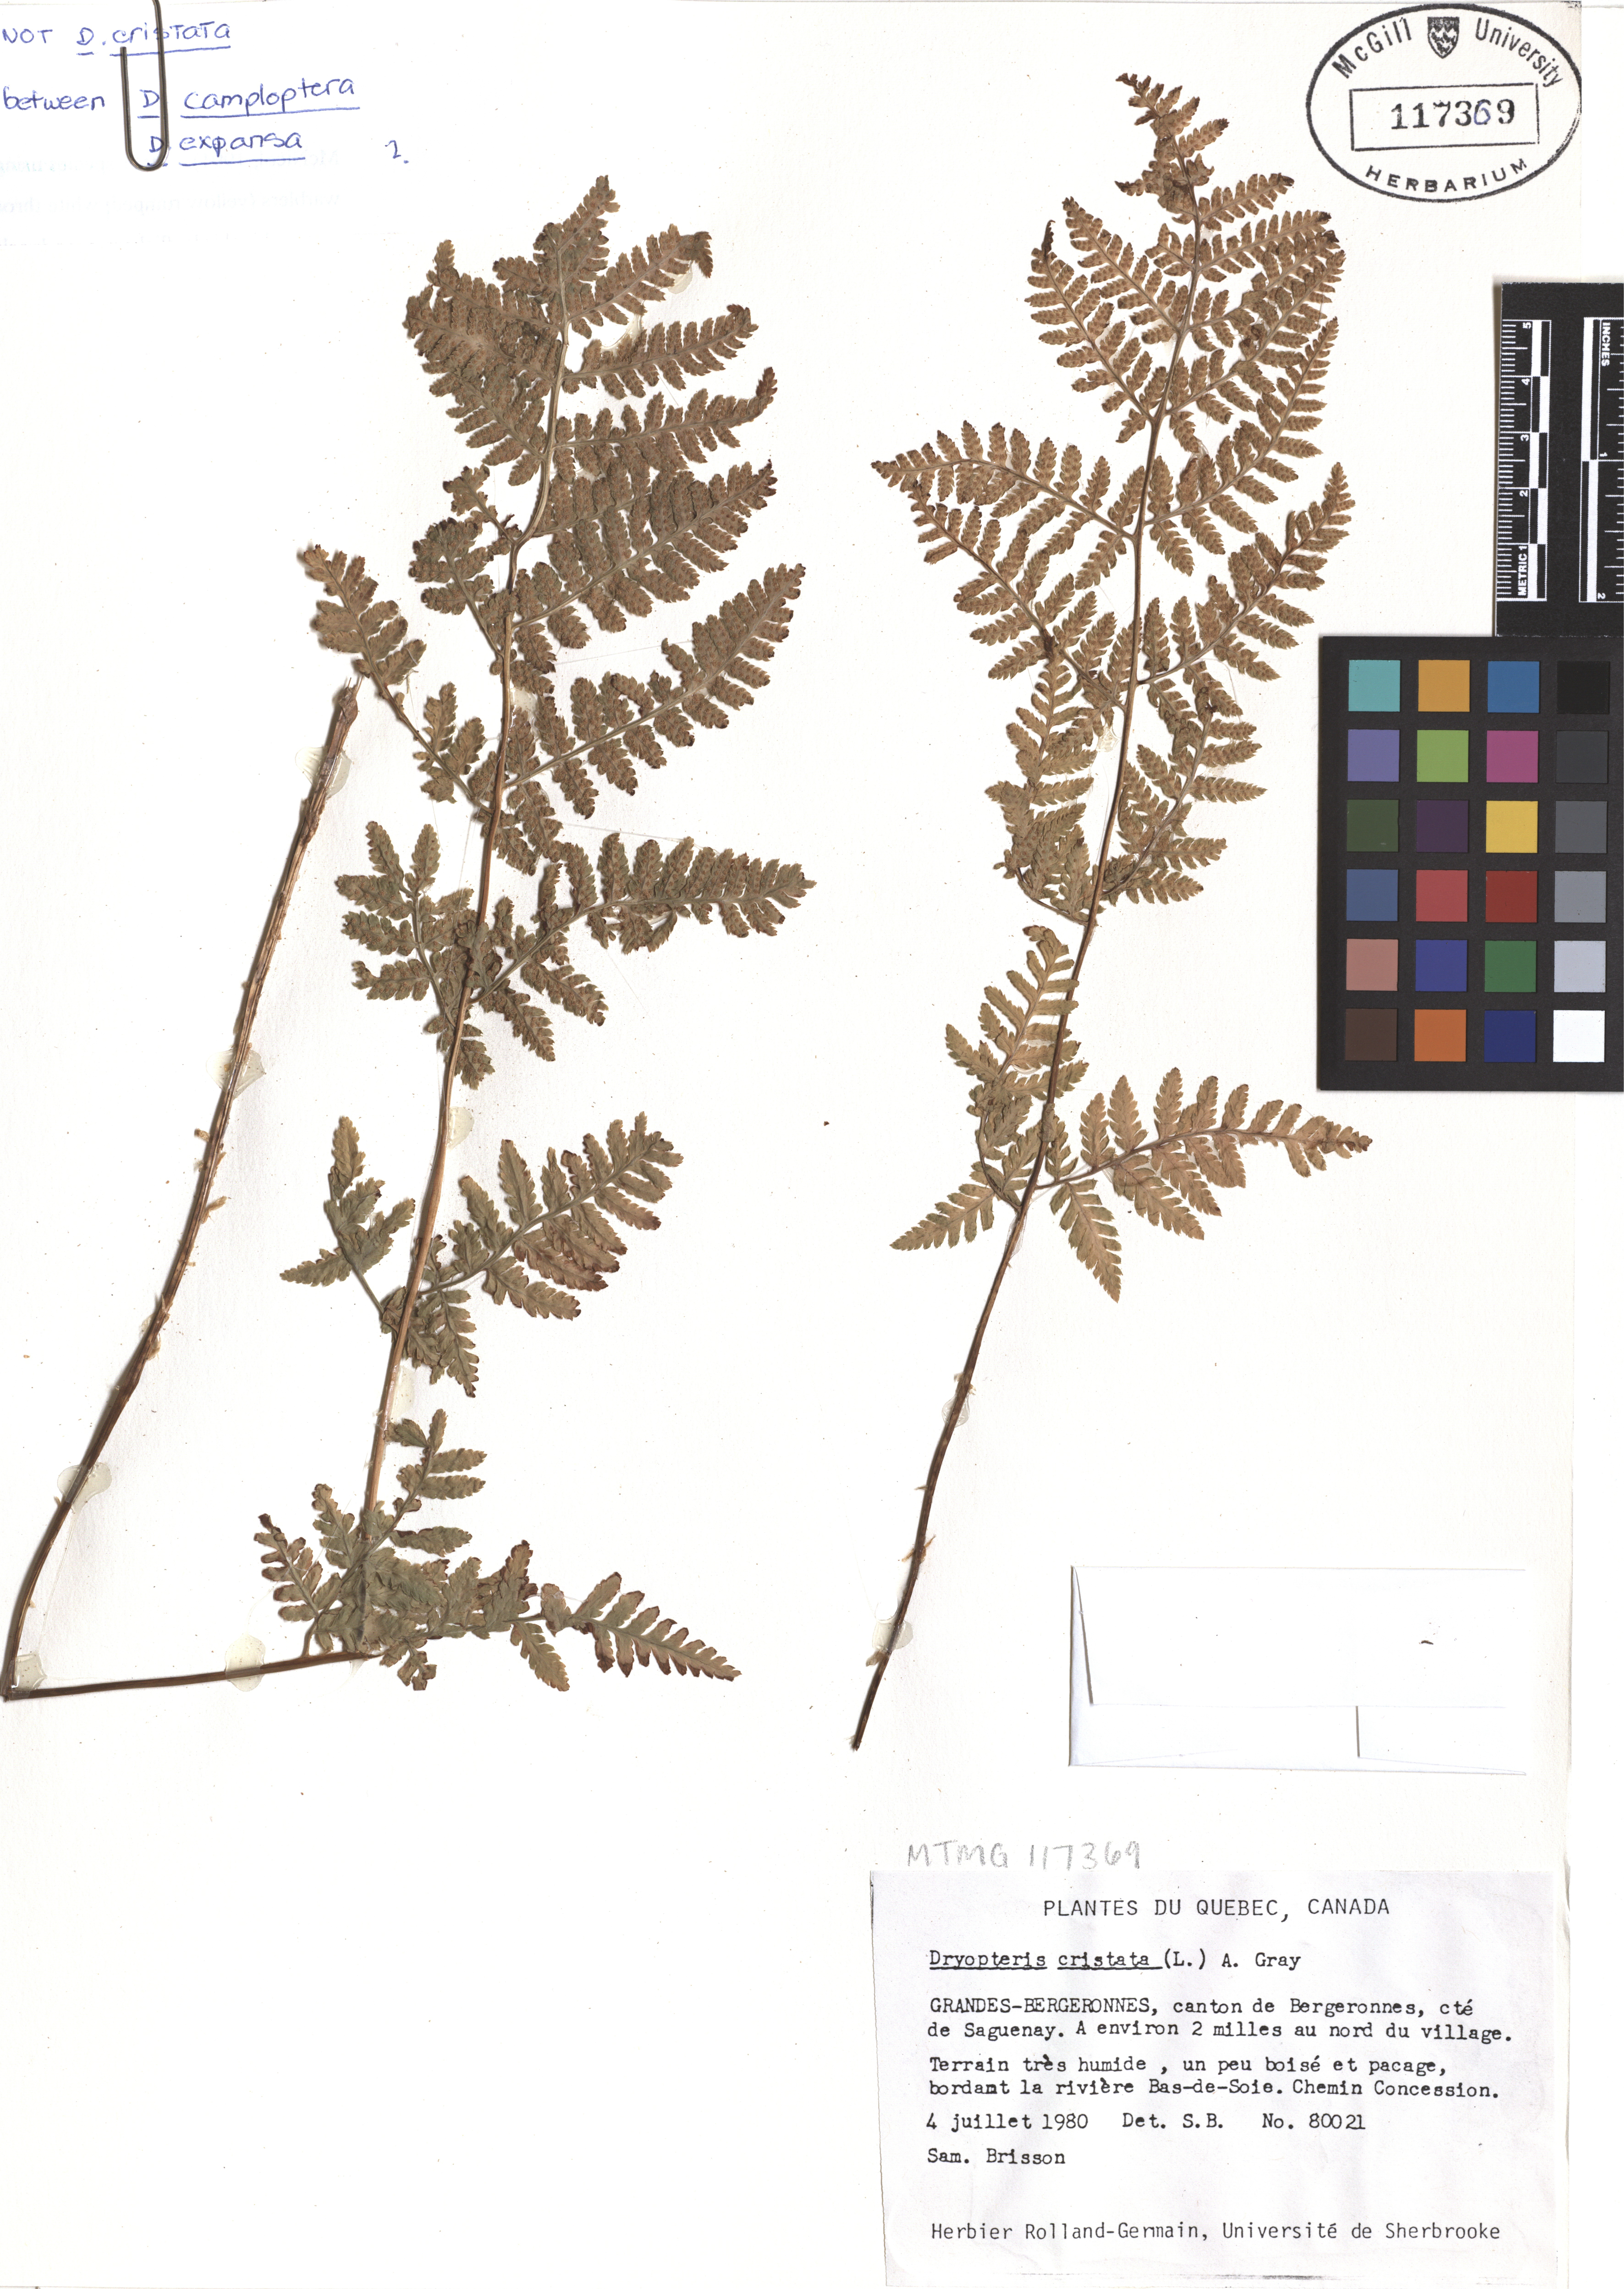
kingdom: Plantae
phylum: Tracheophyta
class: Polypodiopsida
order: Polypodiales
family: Dryopteridaceae
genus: Dryopteris
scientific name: Dryopteris cristata
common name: Crested wood fern
